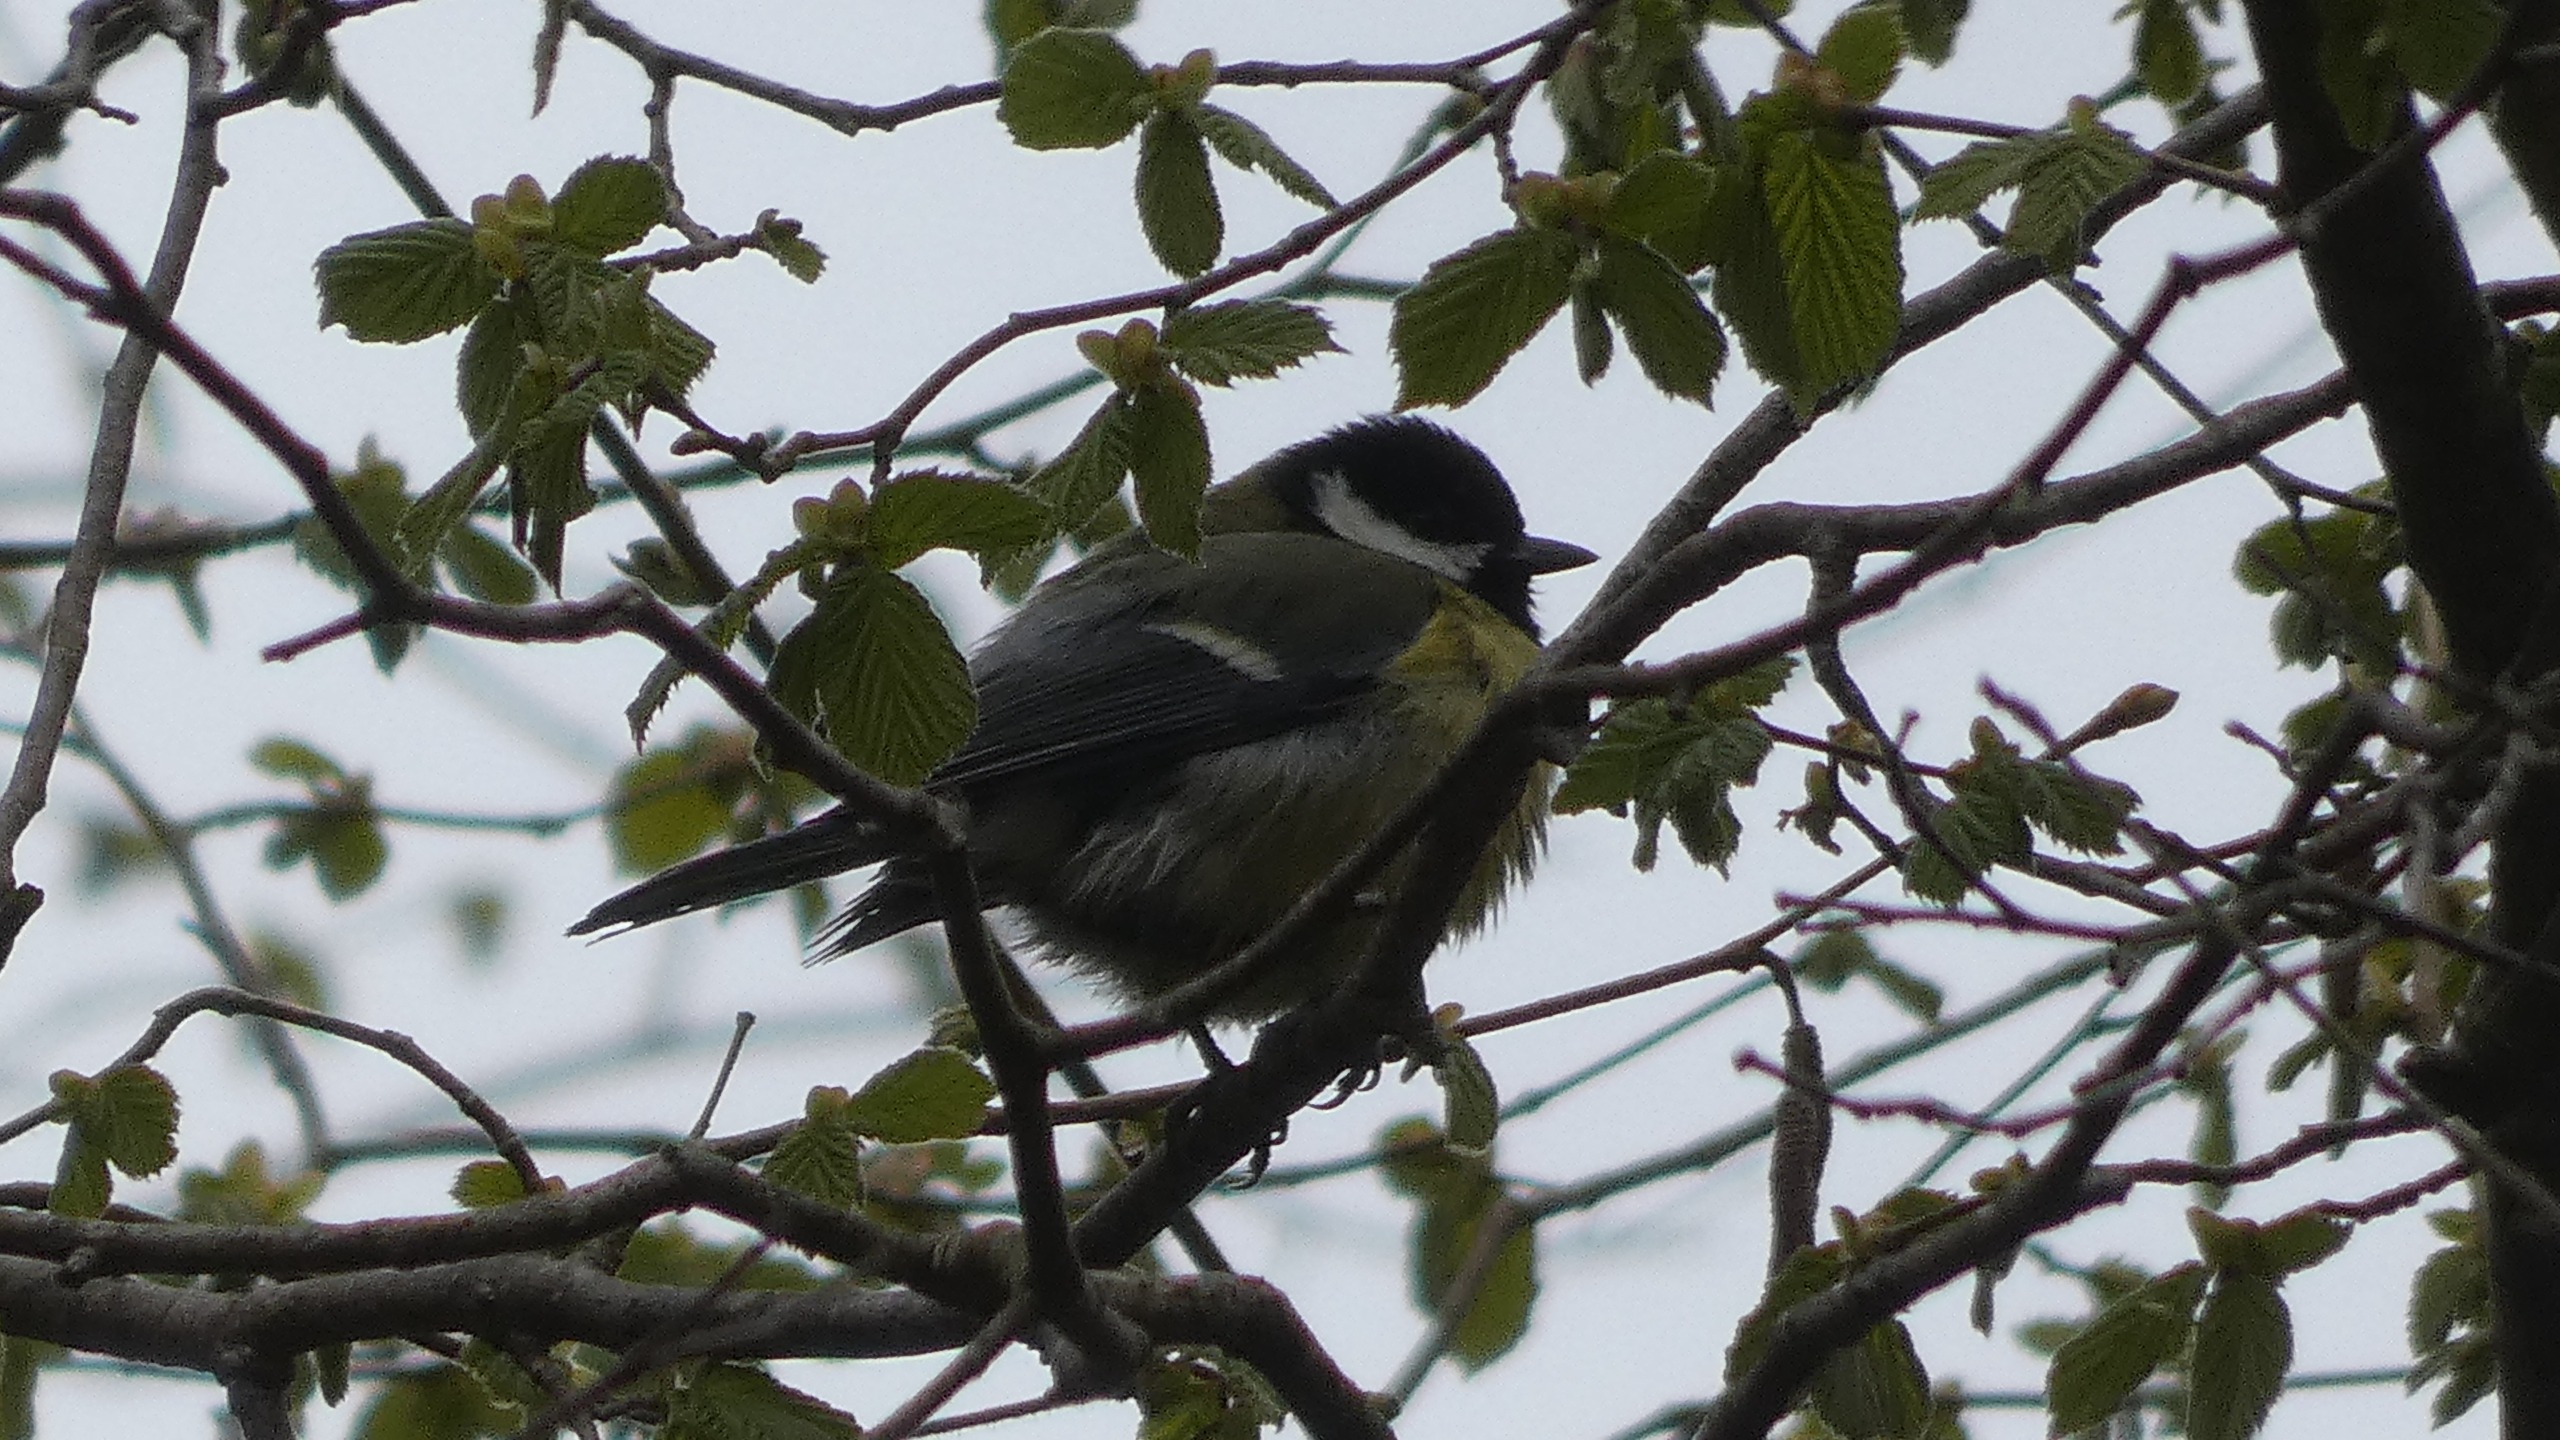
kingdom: Animalia
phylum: Chordata
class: Aves
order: Passeriformes
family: Paridae
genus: Parus
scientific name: Parus major
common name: Musvit
